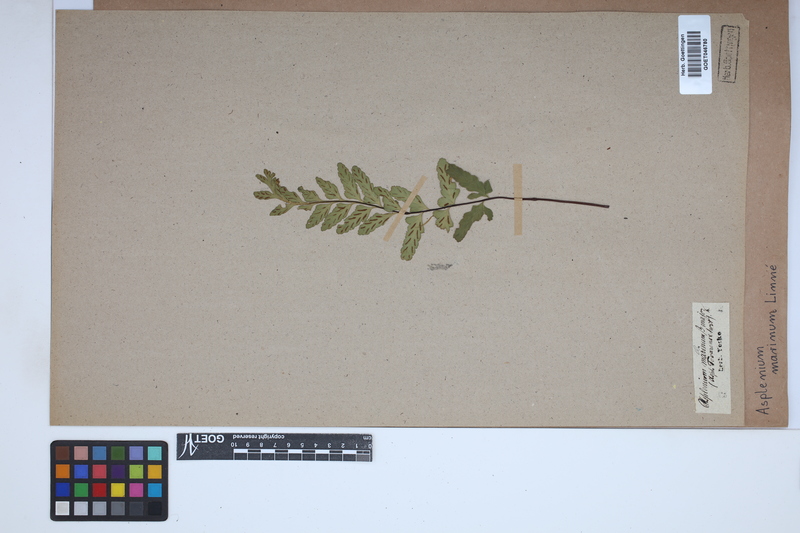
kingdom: Plantae
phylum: Tracheophyta
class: Polypodiopsida
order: Polypodiales
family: Aspleniaceae
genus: Asplenium
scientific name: Asplenium marinum
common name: Sea spleenwort
